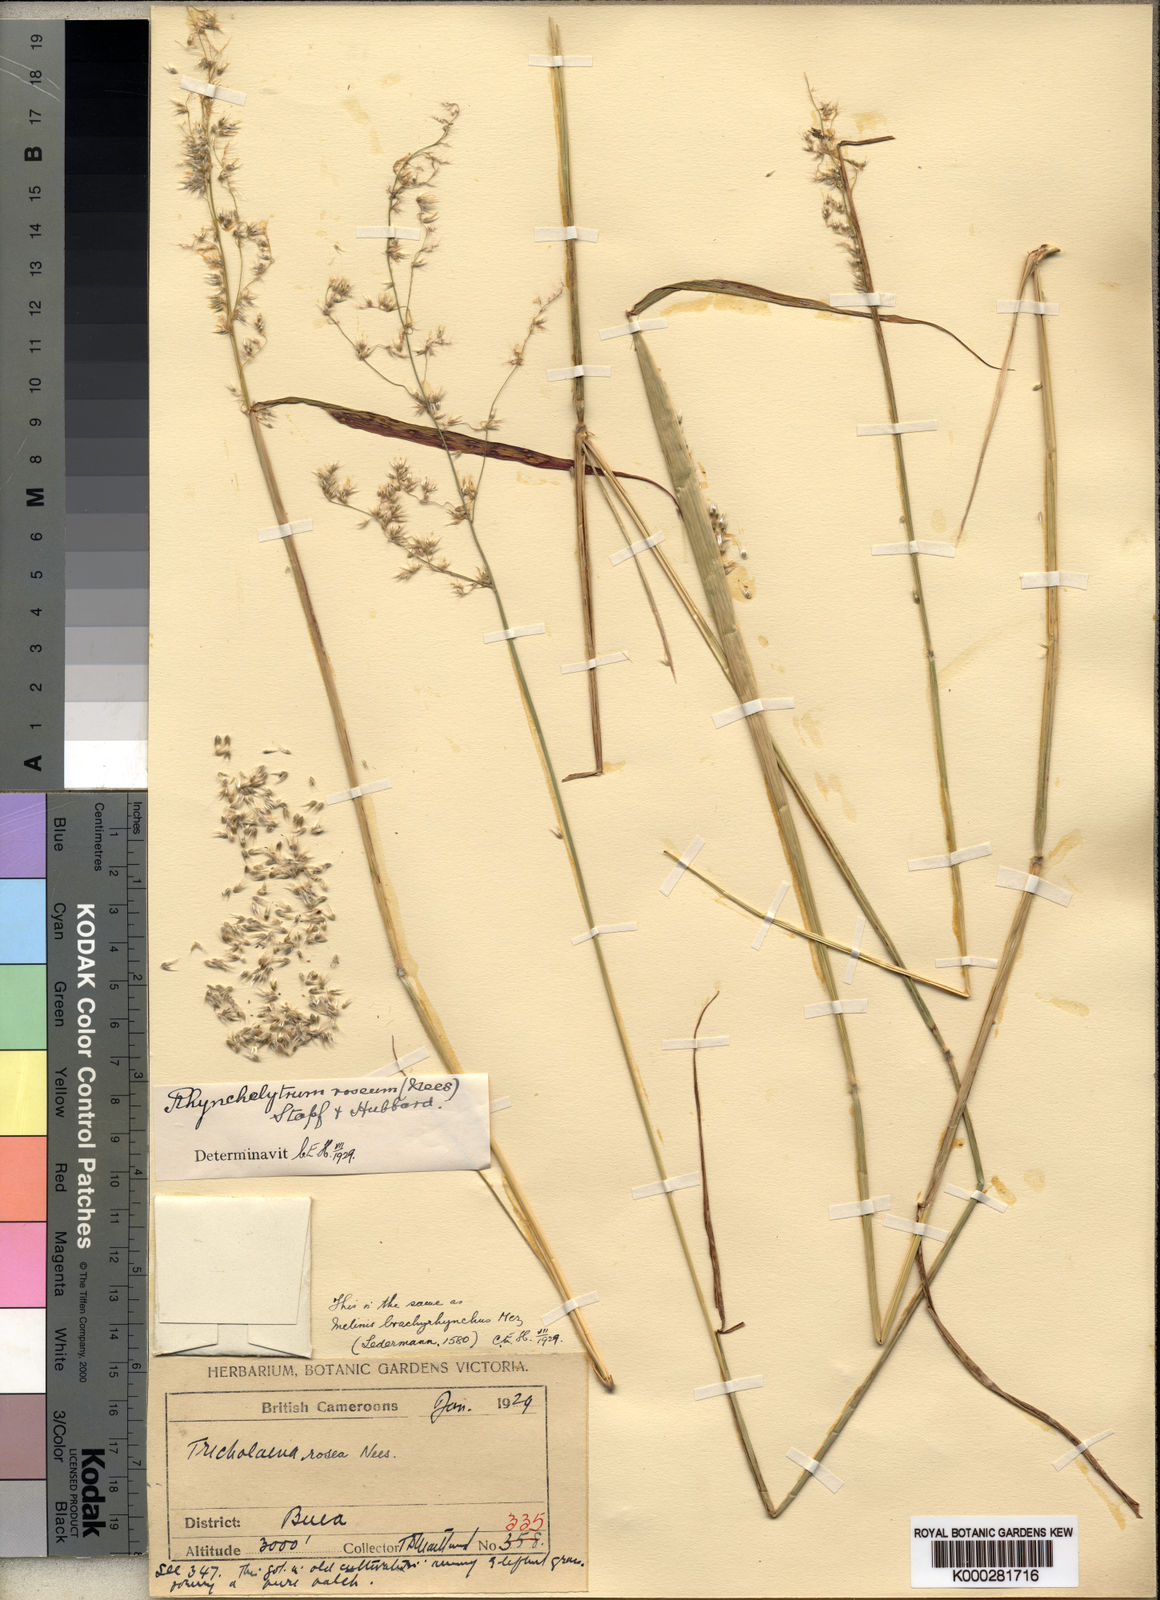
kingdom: Plantae
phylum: Tracheophyta
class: Liliopsida
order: Poales
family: Poaceae
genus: Melinis
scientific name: Melinis repens
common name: Rose natal grass
